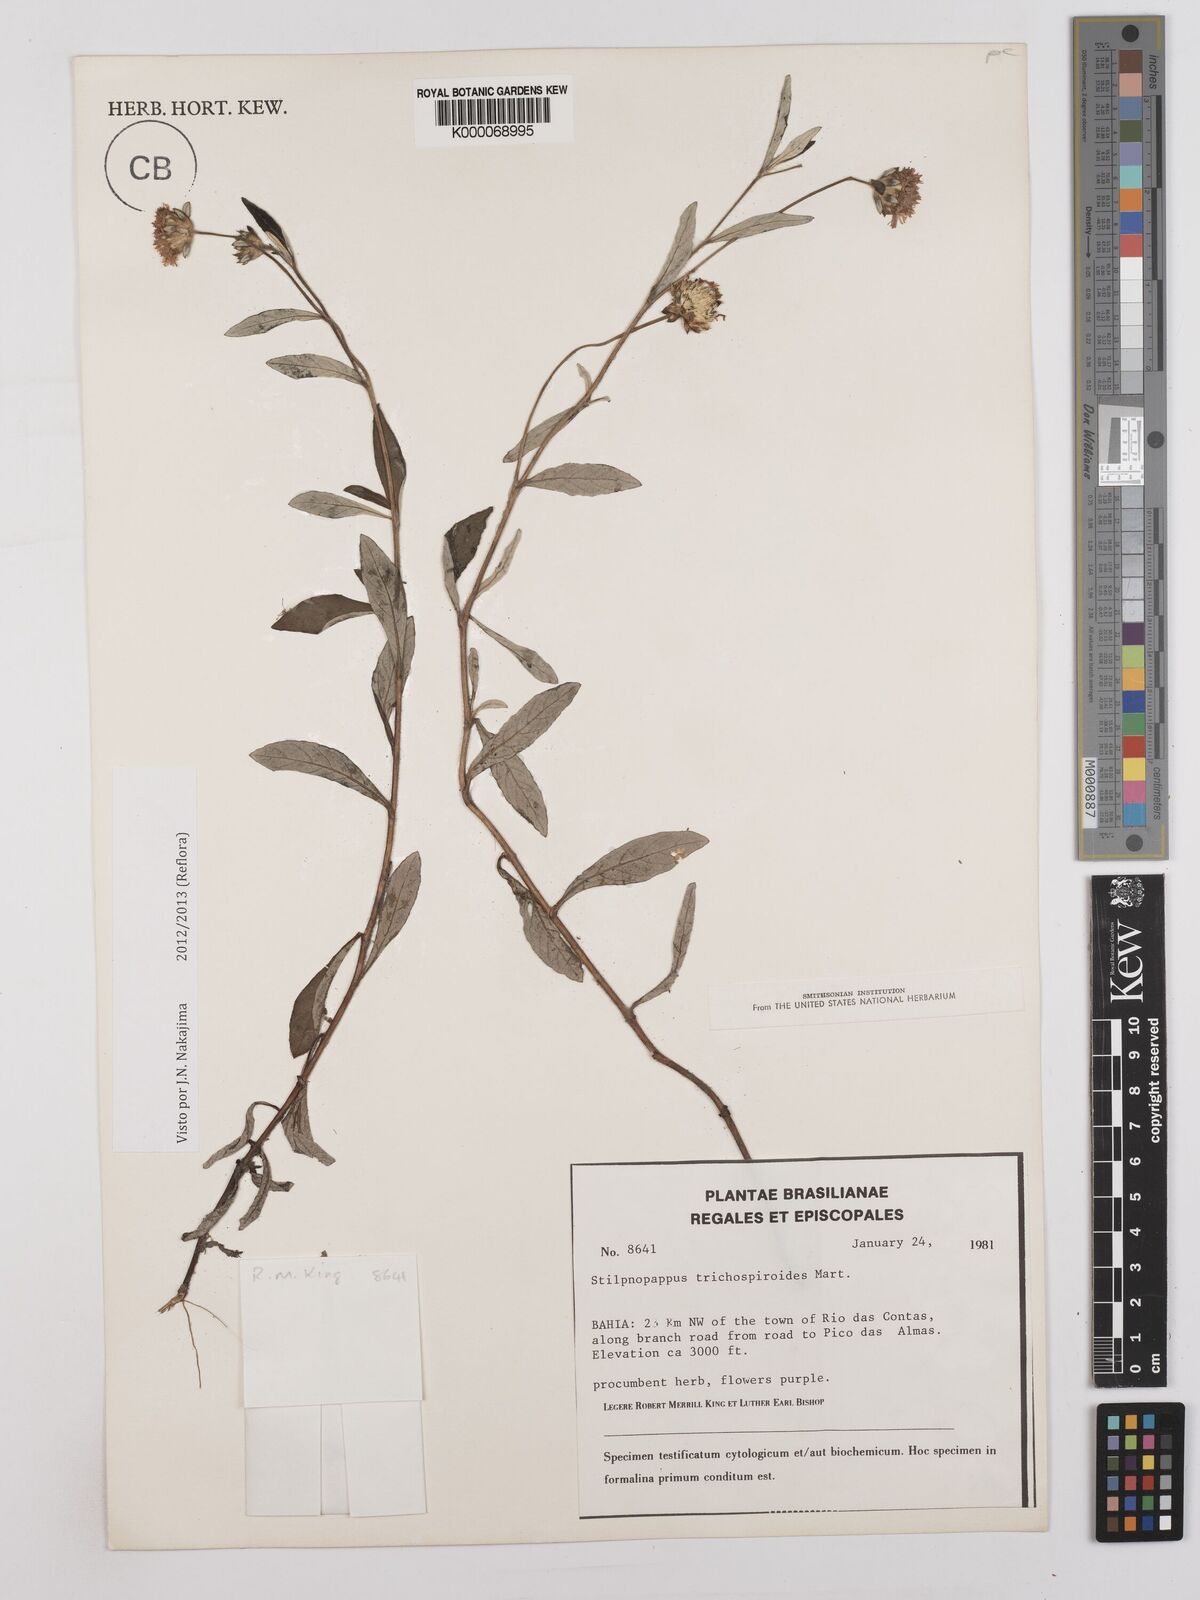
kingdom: Plantae
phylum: Tracheophyta
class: Magnoliopsida
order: Asterales
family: Asteraceae
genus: Stilpnopappus
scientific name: Stilpnopappus
